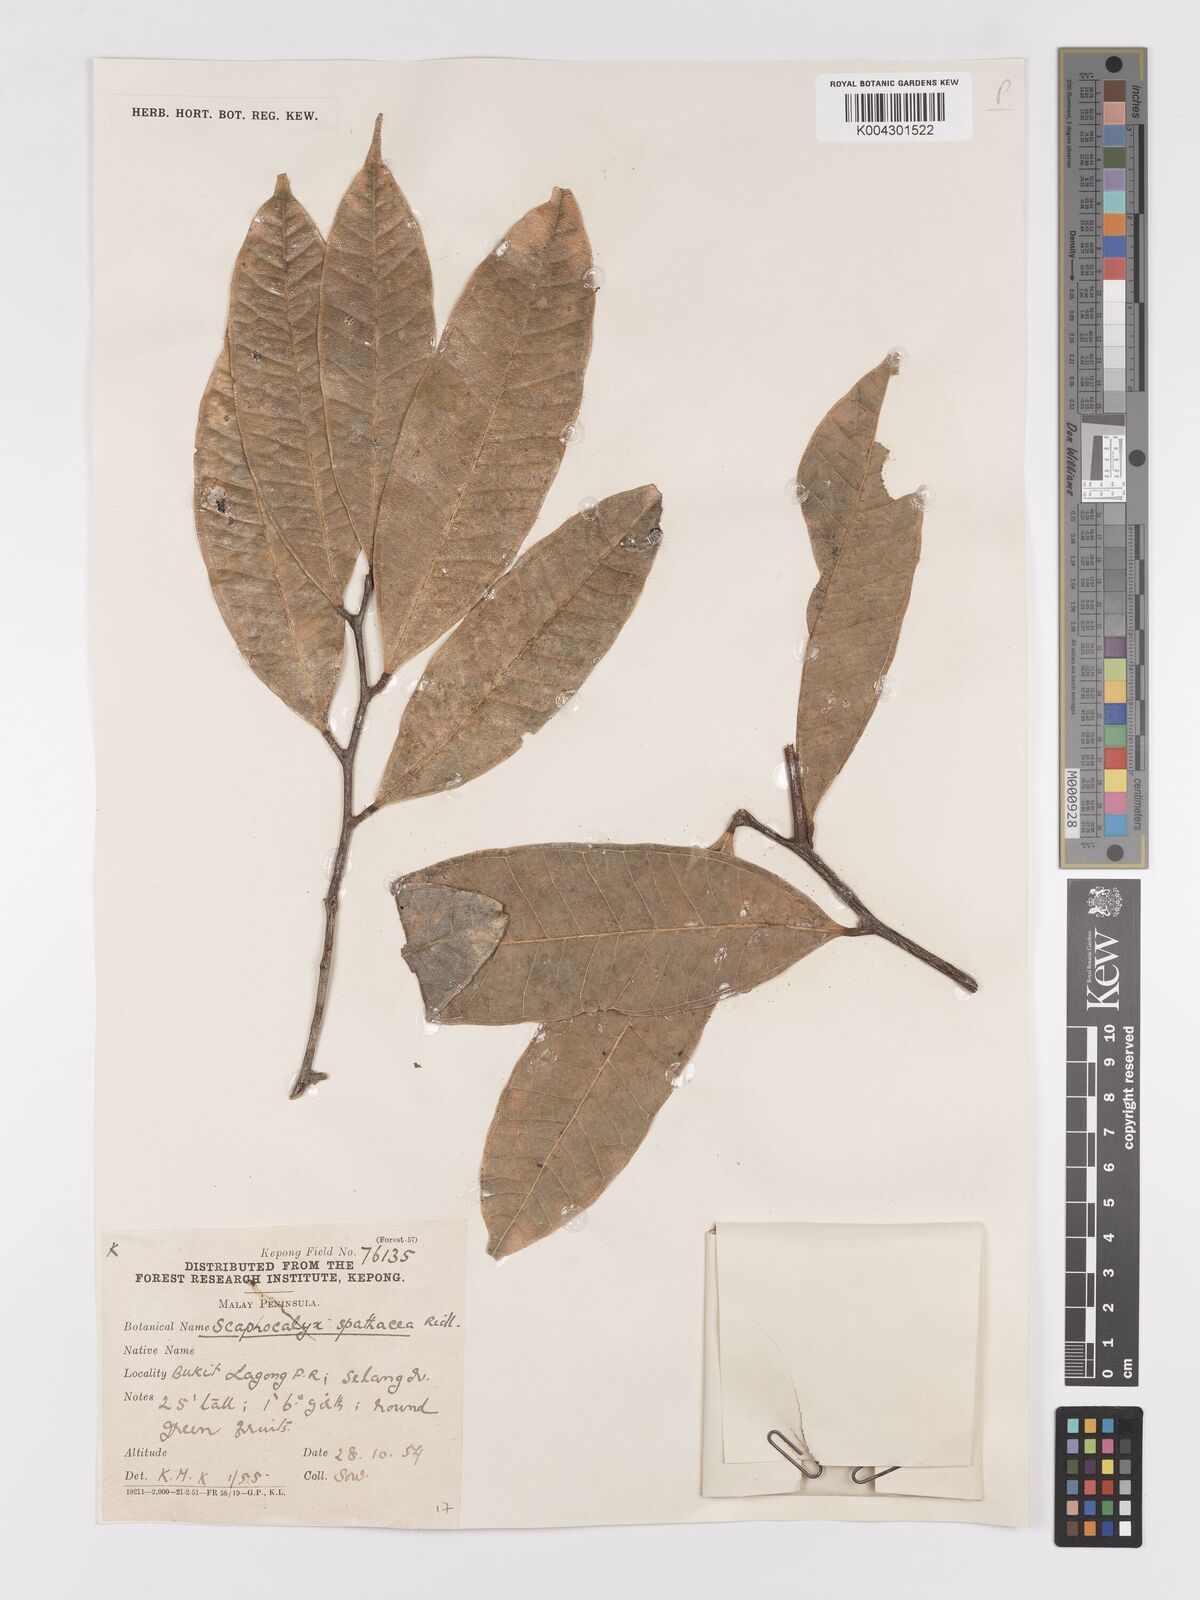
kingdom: Plantae
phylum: Tracheophyta
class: Magnoliopsida
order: Malpighiales
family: Achariaceae
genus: Scaphocalyx
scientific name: Scaphocalyx spathacea
